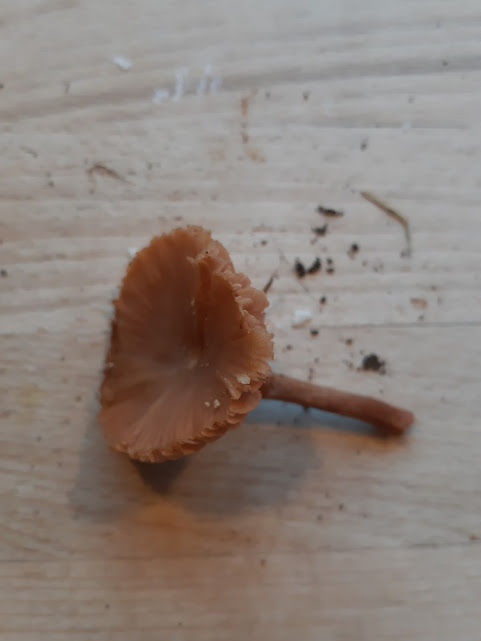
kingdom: Fungi
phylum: Basidiomycota
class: Agaricomycetes
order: Agaricales
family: Hydnangiaceae
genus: Laccaria
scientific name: Laccaria laccata
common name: rød ametysthat
